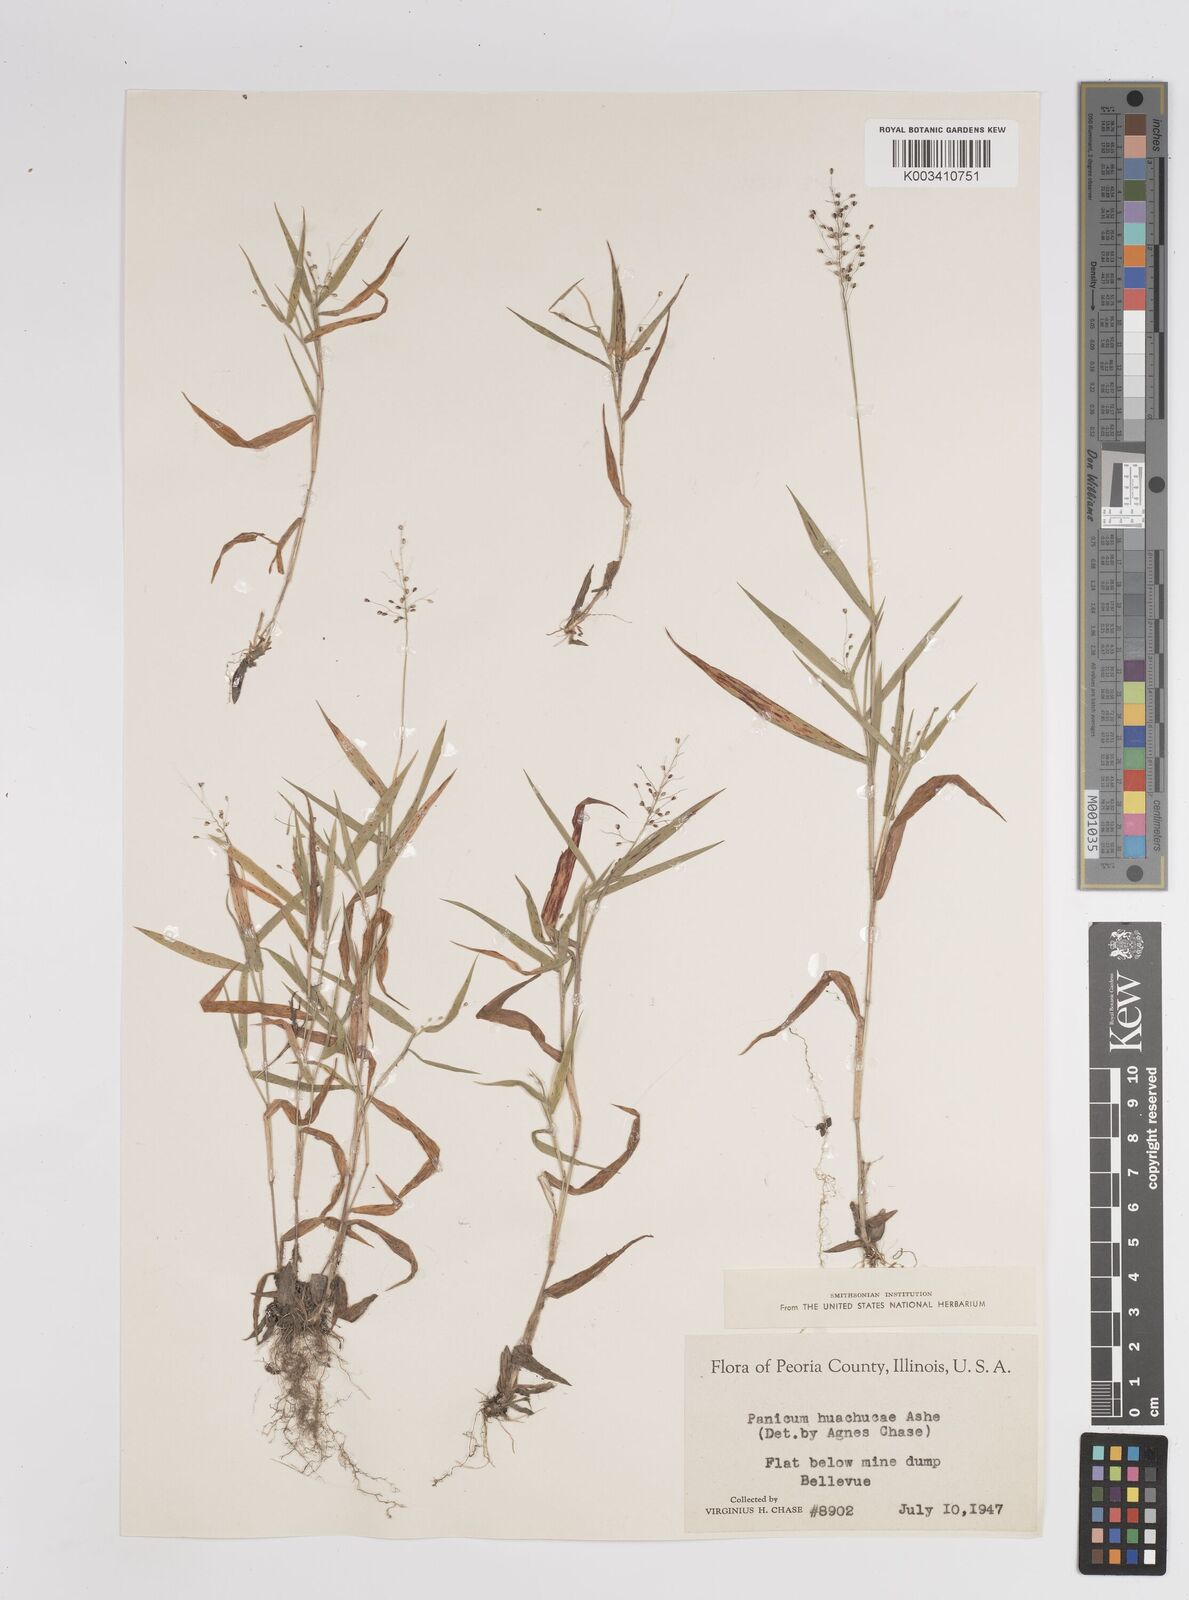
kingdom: Plantae
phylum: Tracheophyta
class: Liliopsida
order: Poales
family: Poaceae
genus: Dichanthelium
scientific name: Dichanthelium acuminatum
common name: Hairy panic grass
